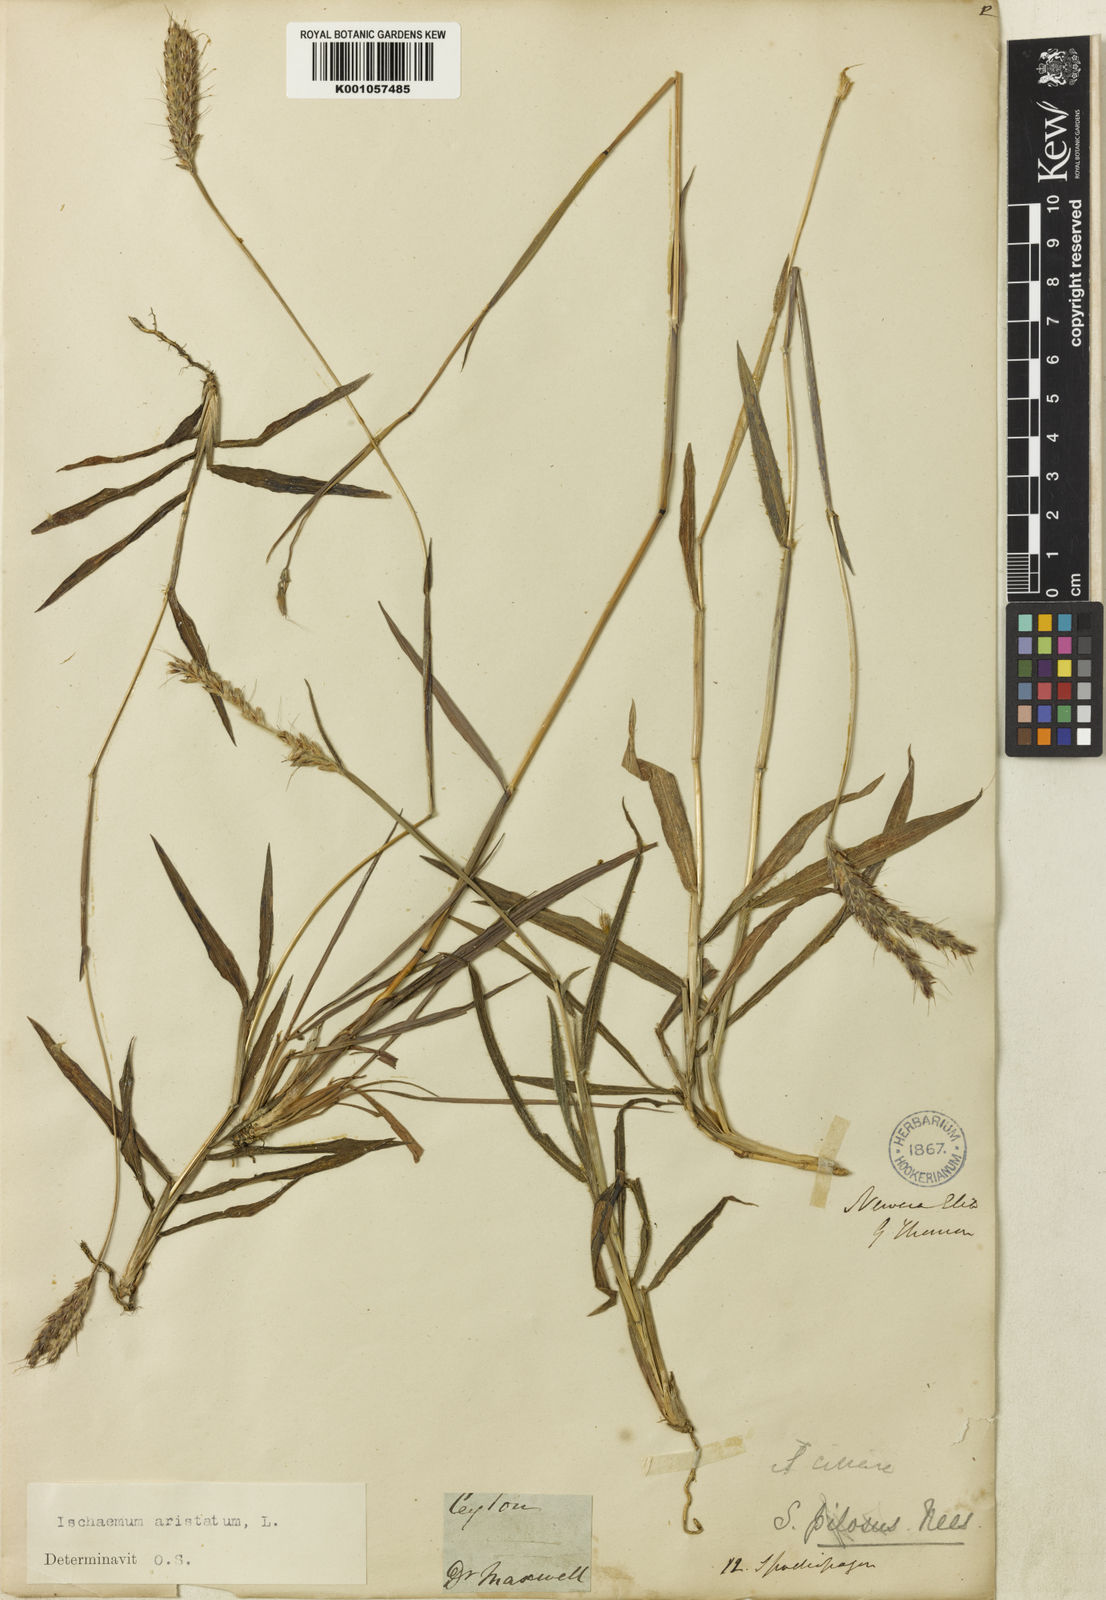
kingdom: Plantae
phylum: Tracheophyta
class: Liliopsida
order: Poales
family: Poaceae
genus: Polytrias
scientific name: Polytrias indica
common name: Indian murainagrass
